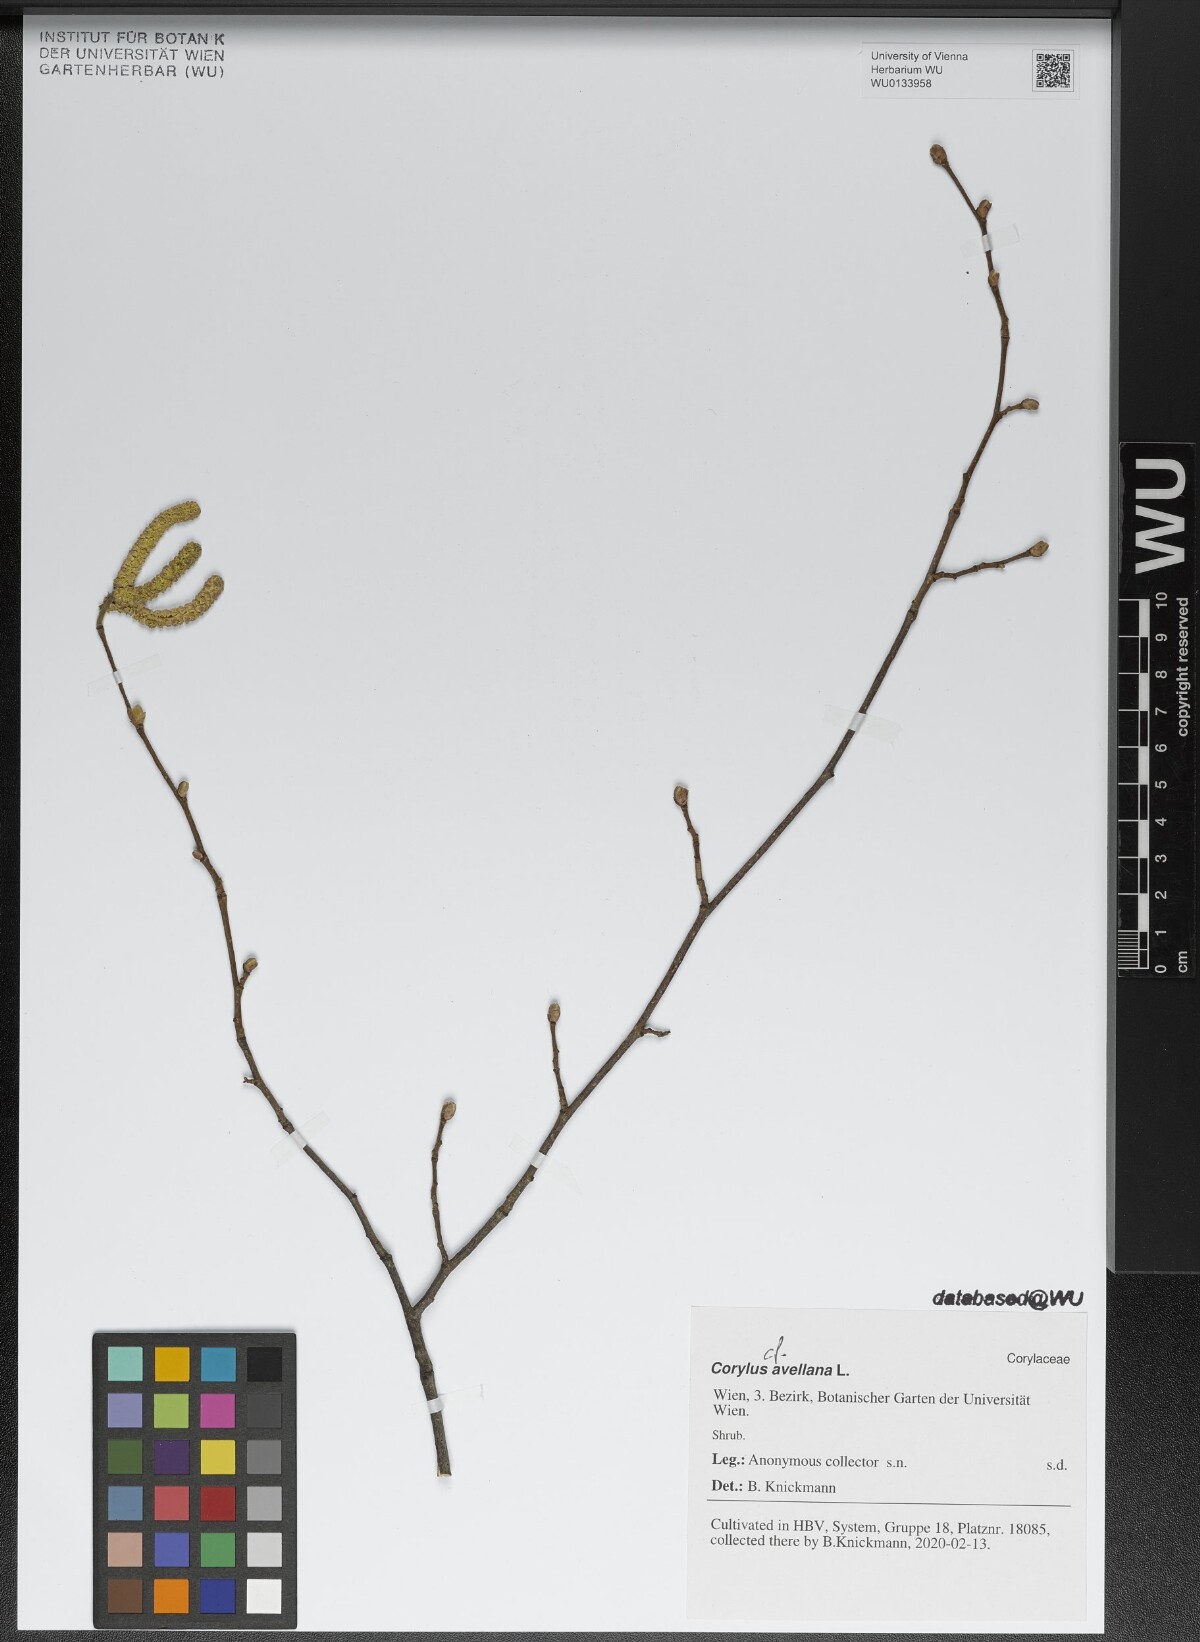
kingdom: Plantae
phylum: Tracheophyta
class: Magnoliopsida
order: Fagales
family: Betulaceae
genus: Corylus
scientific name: Corylus avellana
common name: European hazel
